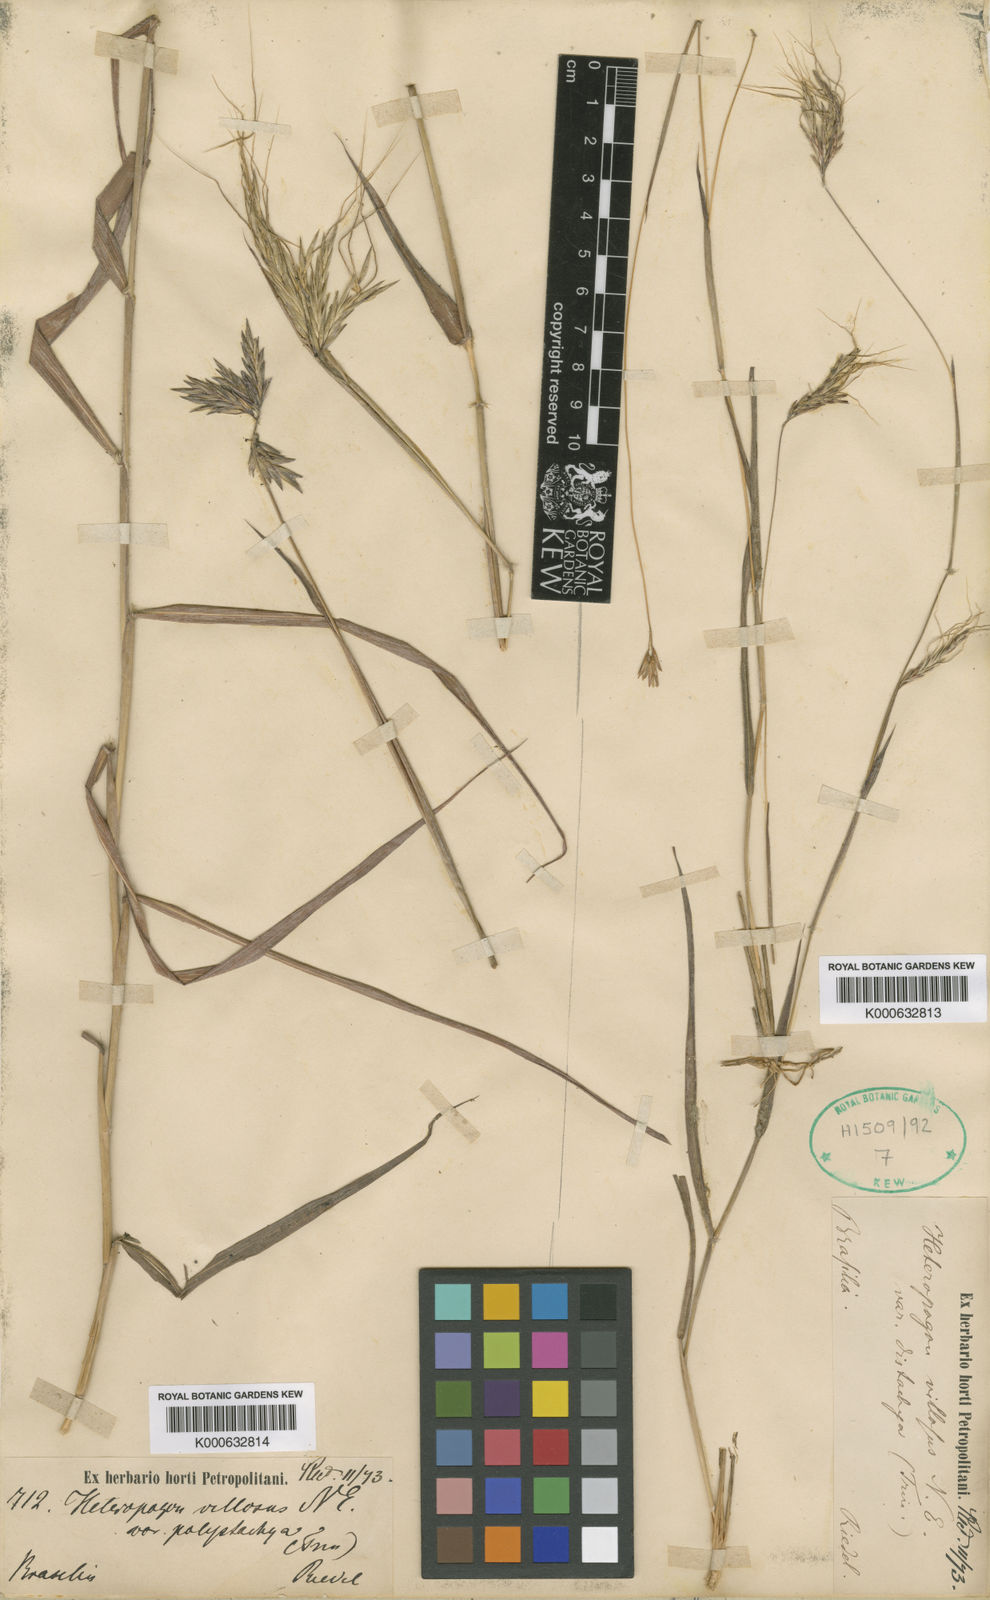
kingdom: Plantae
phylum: Tracheophyta
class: Liliopsida
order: Poales
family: Poaceae
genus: Agenium
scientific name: Agenium villosum
